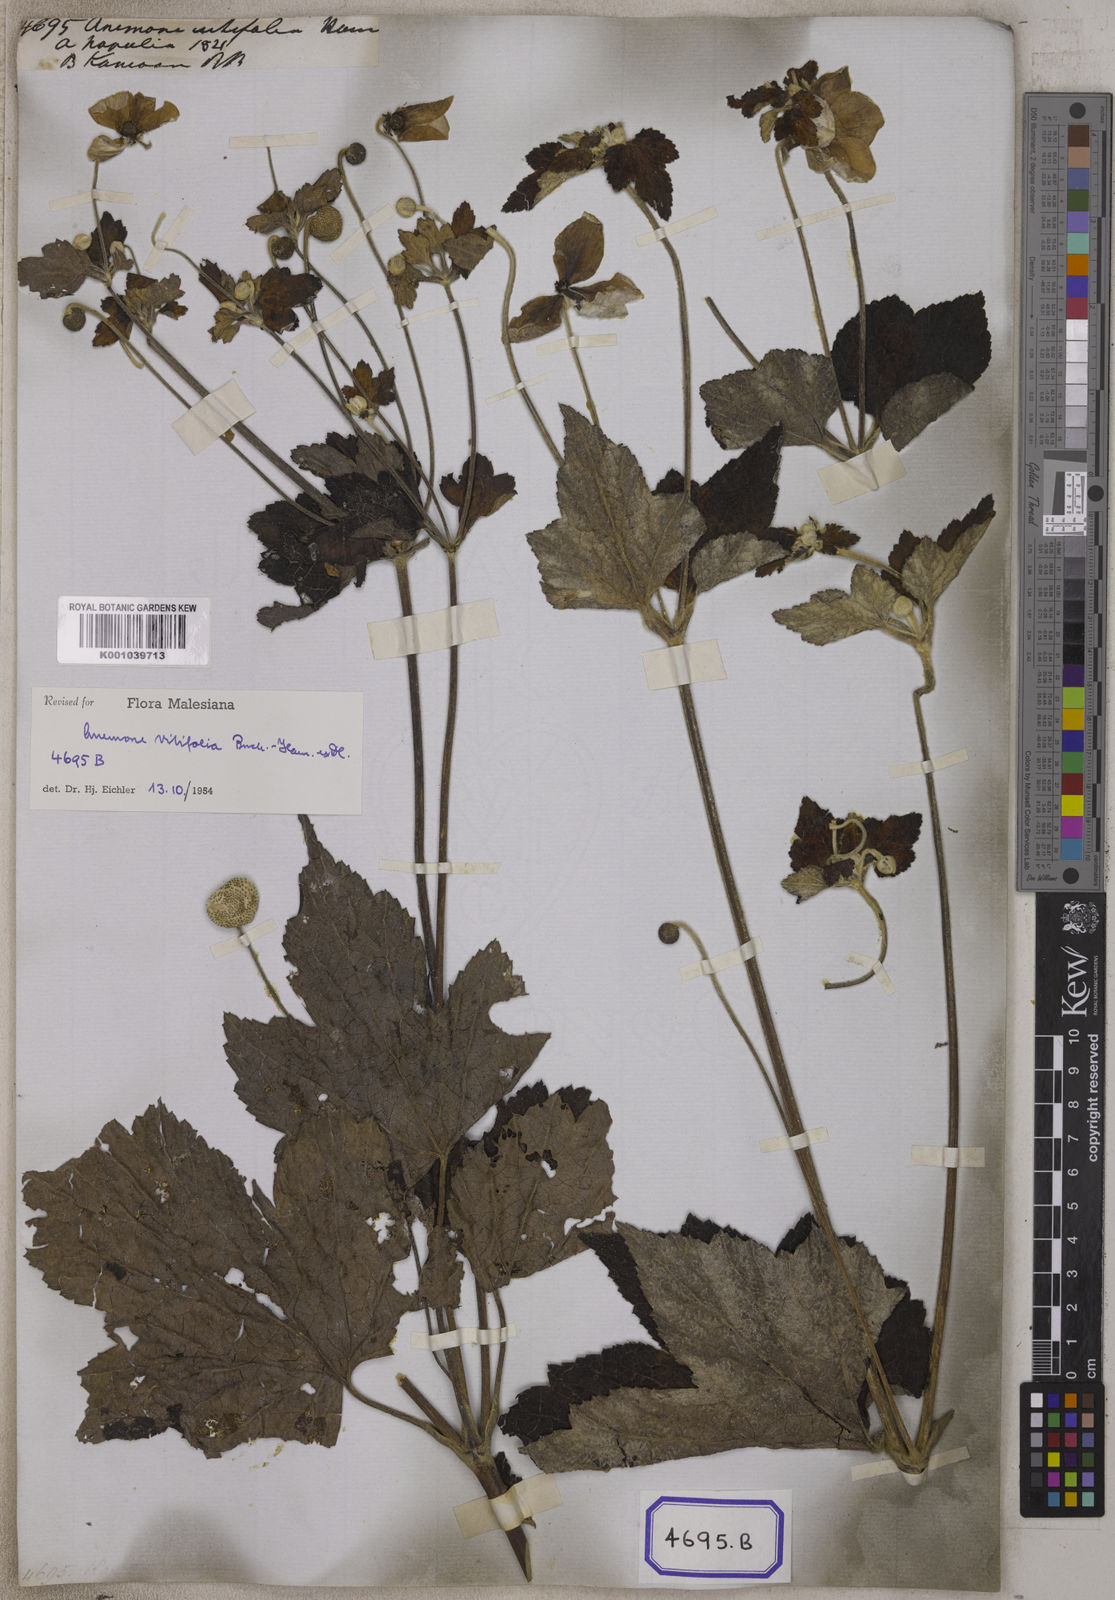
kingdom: Plantae
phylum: Tracheophyta
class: Magnoliopsida
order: Ranunculales
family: Ranunculaceae
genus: Eriocapitella
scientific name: Eriocapitella vitifolia
